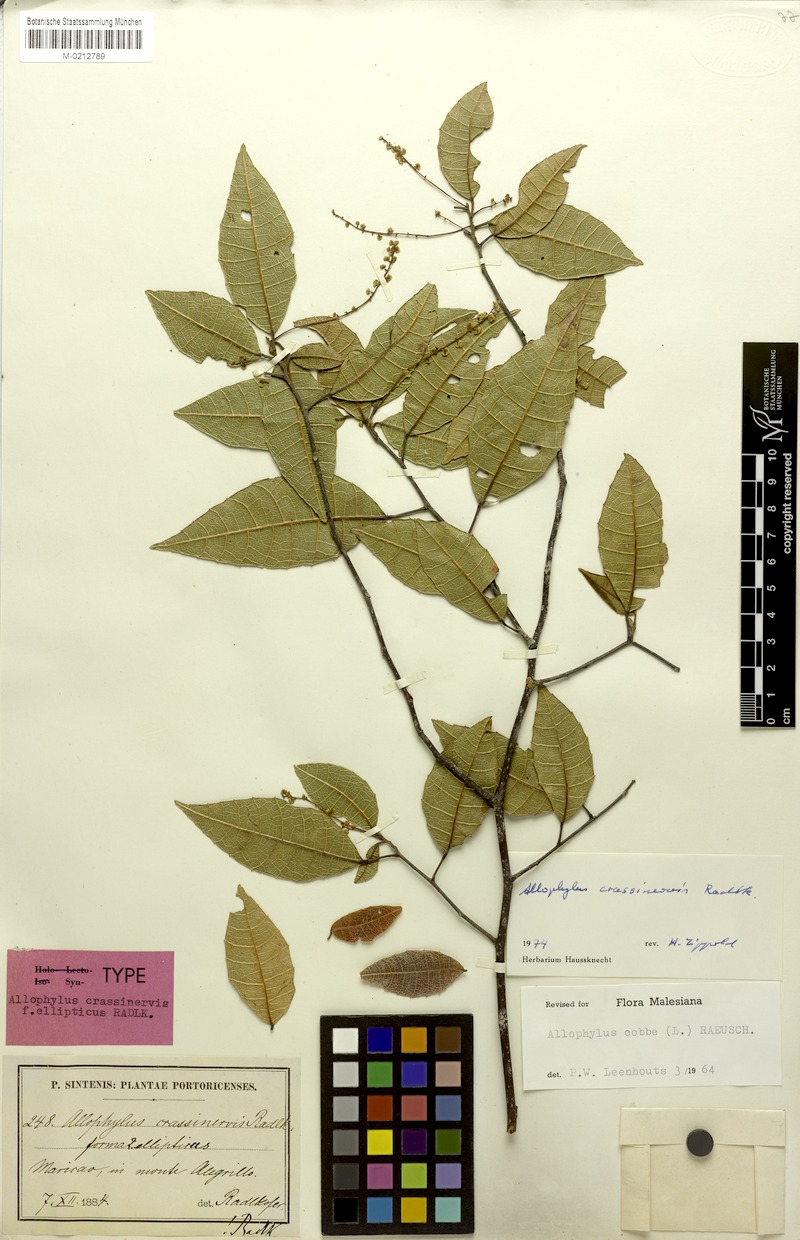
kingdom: Plantae
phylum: Tracheophyta
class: Magnoliopsida
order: Sapindales
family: Sapindaceae
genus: Allophylus
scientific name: Allophylus crassinervis
